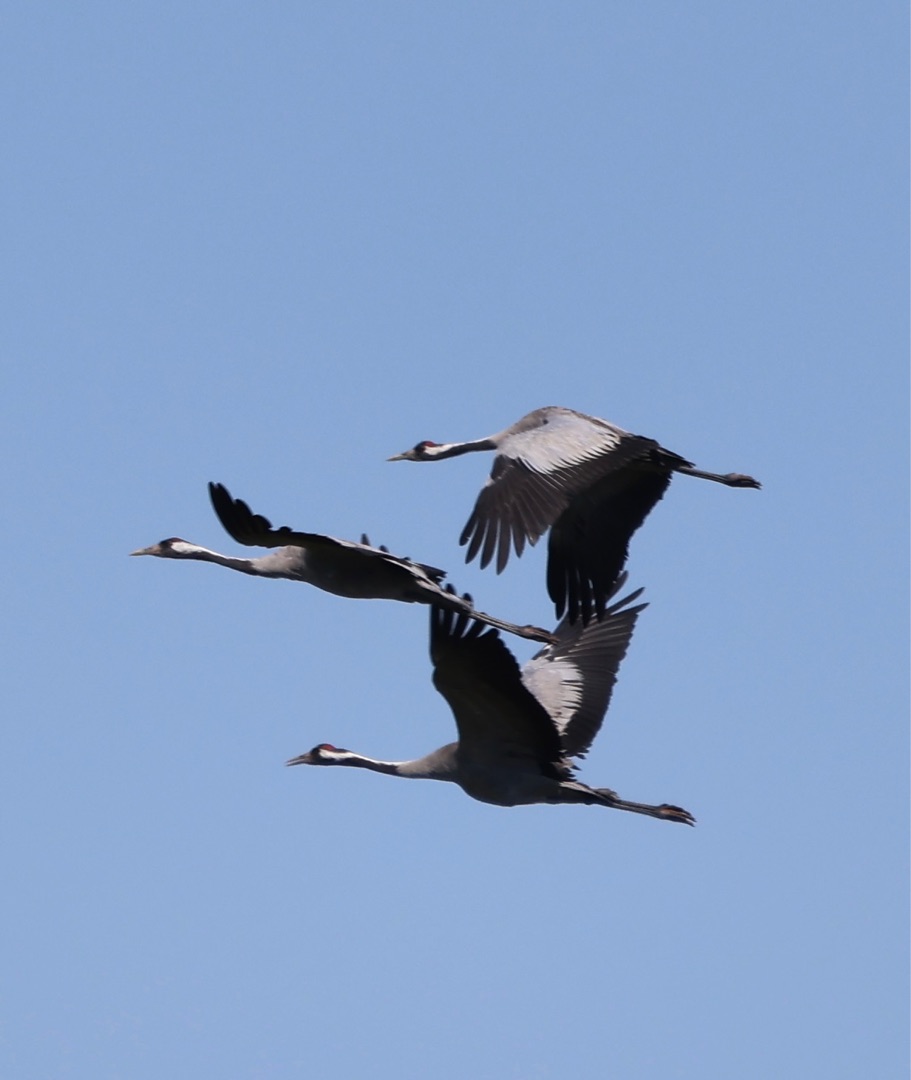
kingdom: Animalia
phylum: Chordata
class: Aves
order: Gruiformes
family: Gruidae
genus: Grus
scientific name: Grus grus
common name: Trane
